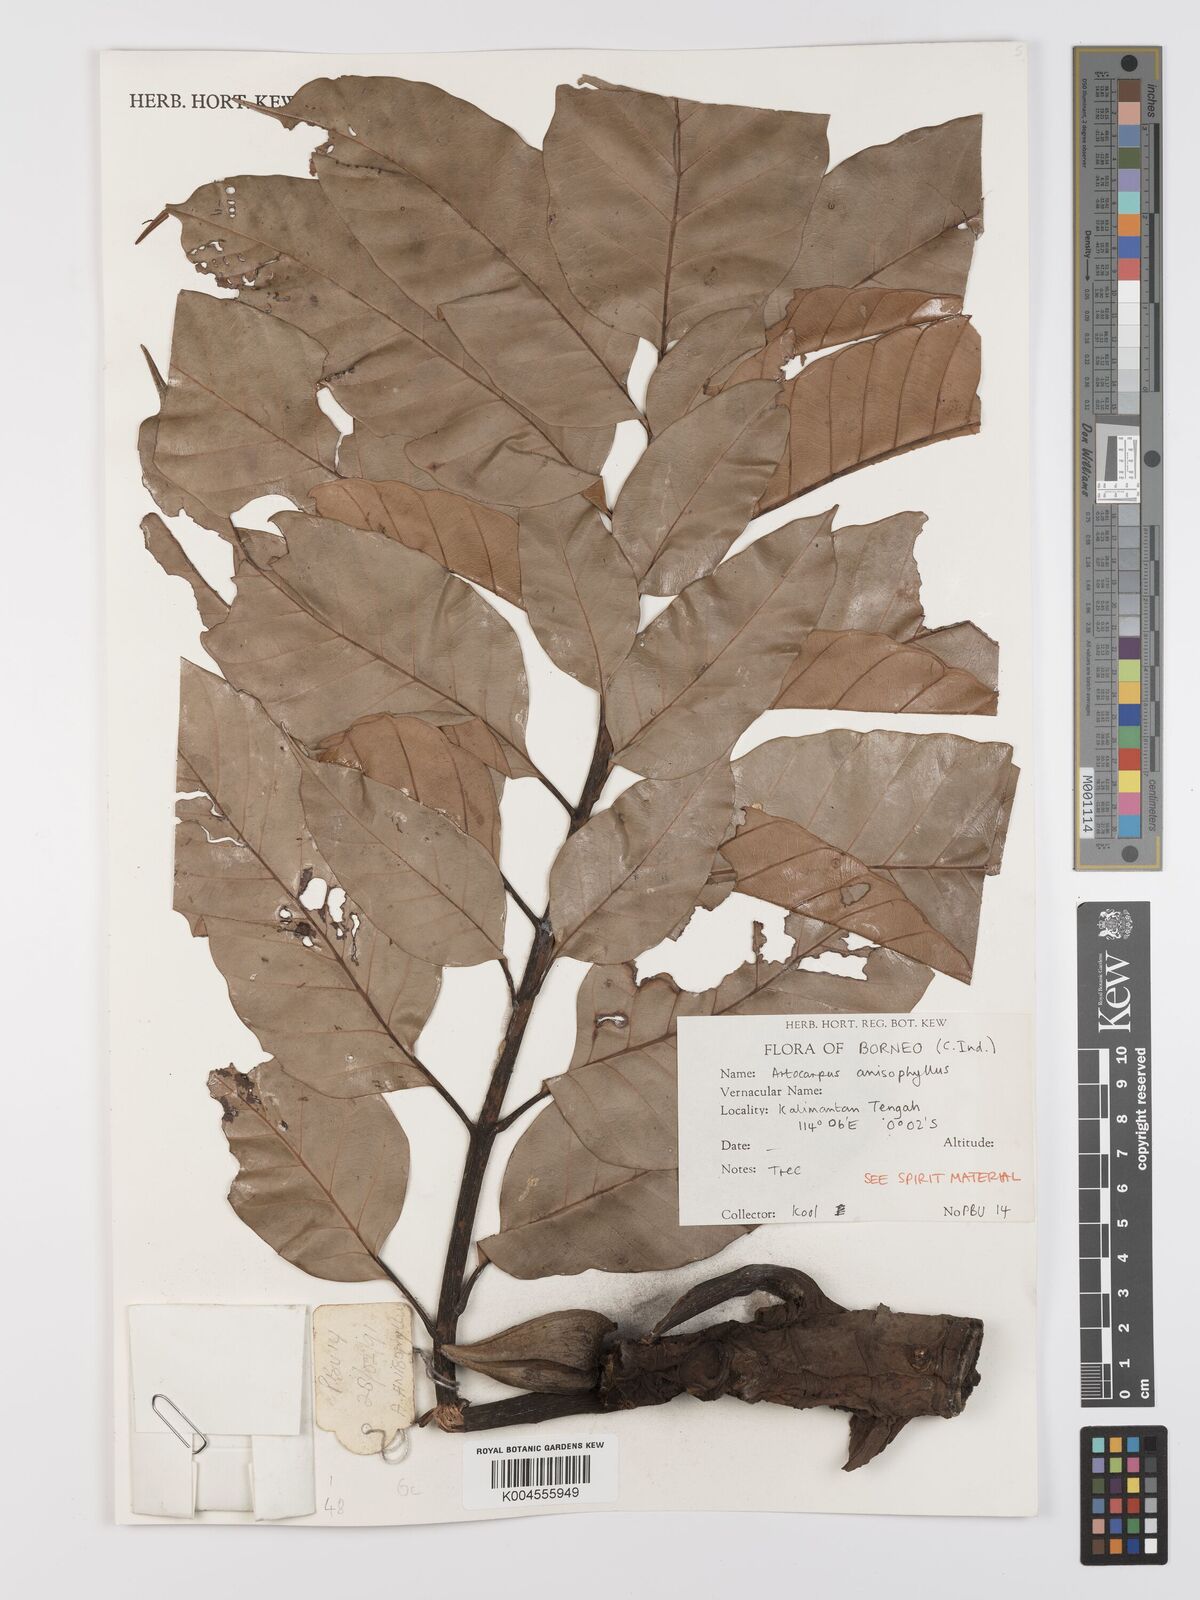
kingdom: Plantae
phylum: Tracheophyta
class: Magnoliopsida
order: Rosales
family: Moraceae
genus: Artocarpus
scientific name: Artocarpus anisophyllus
